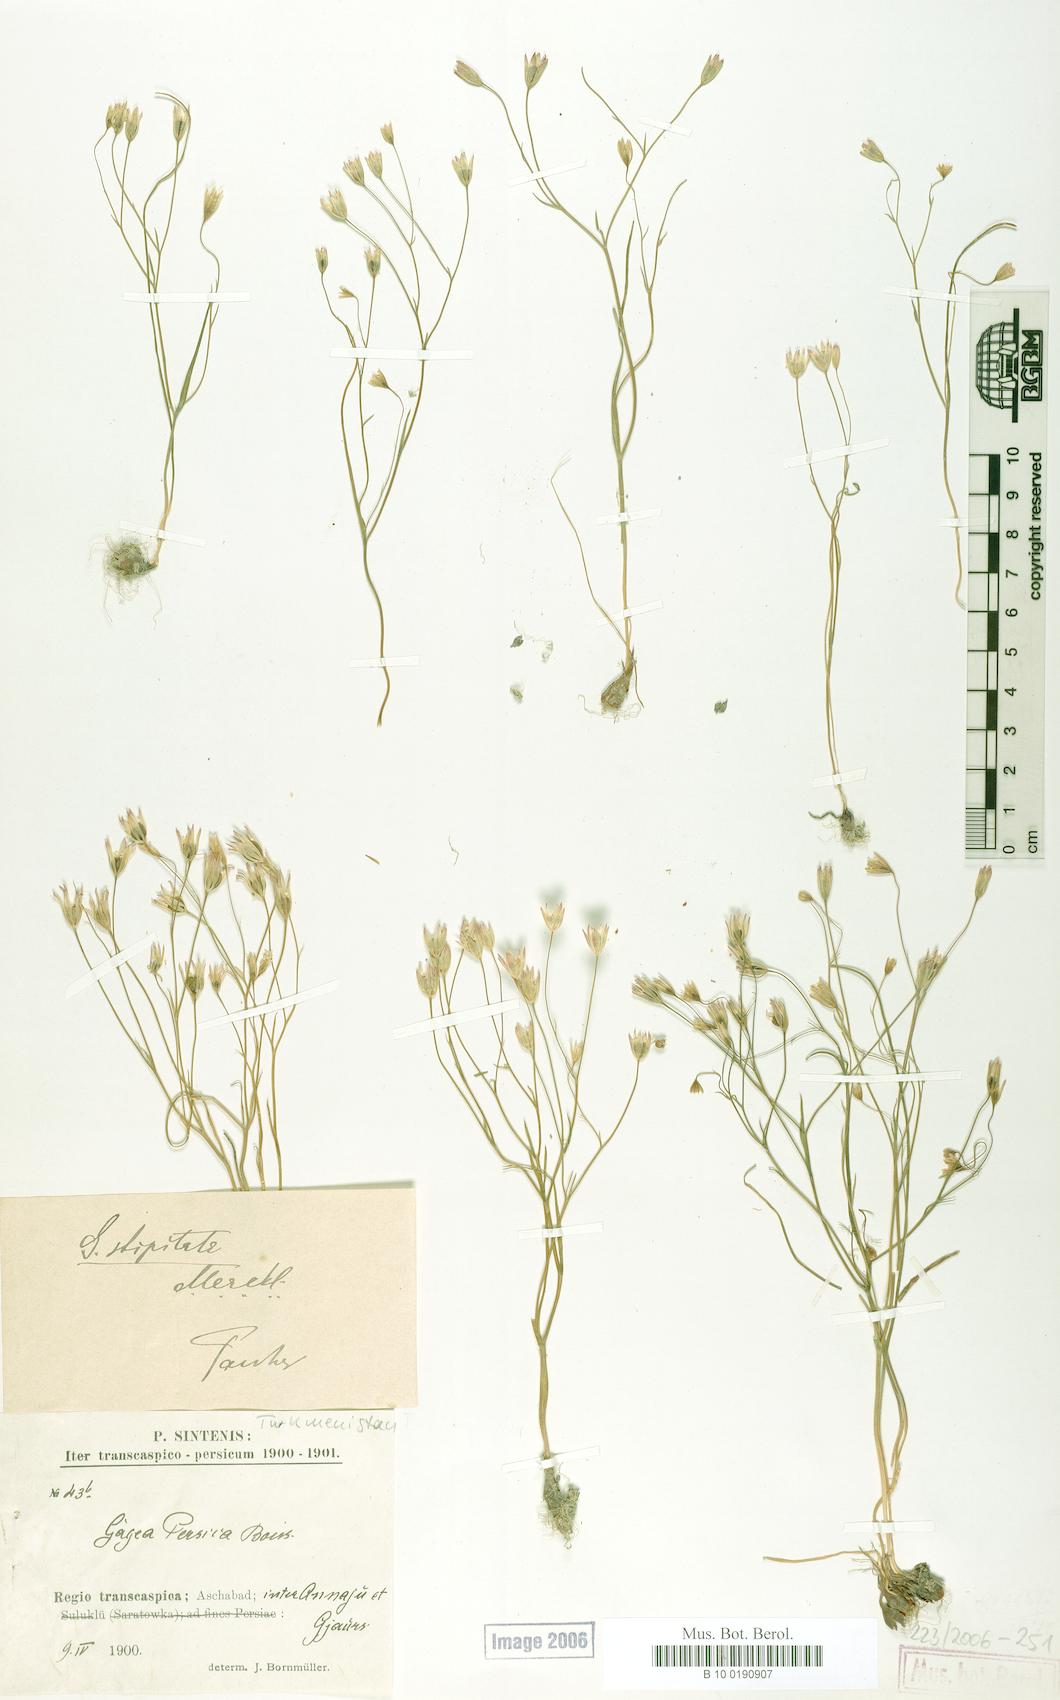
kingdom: Plantae
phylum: Tracheophyta
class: Liliopsida
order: Liliales
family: Liliaceae
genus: Gagea
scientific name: Gagea kunawurensis
